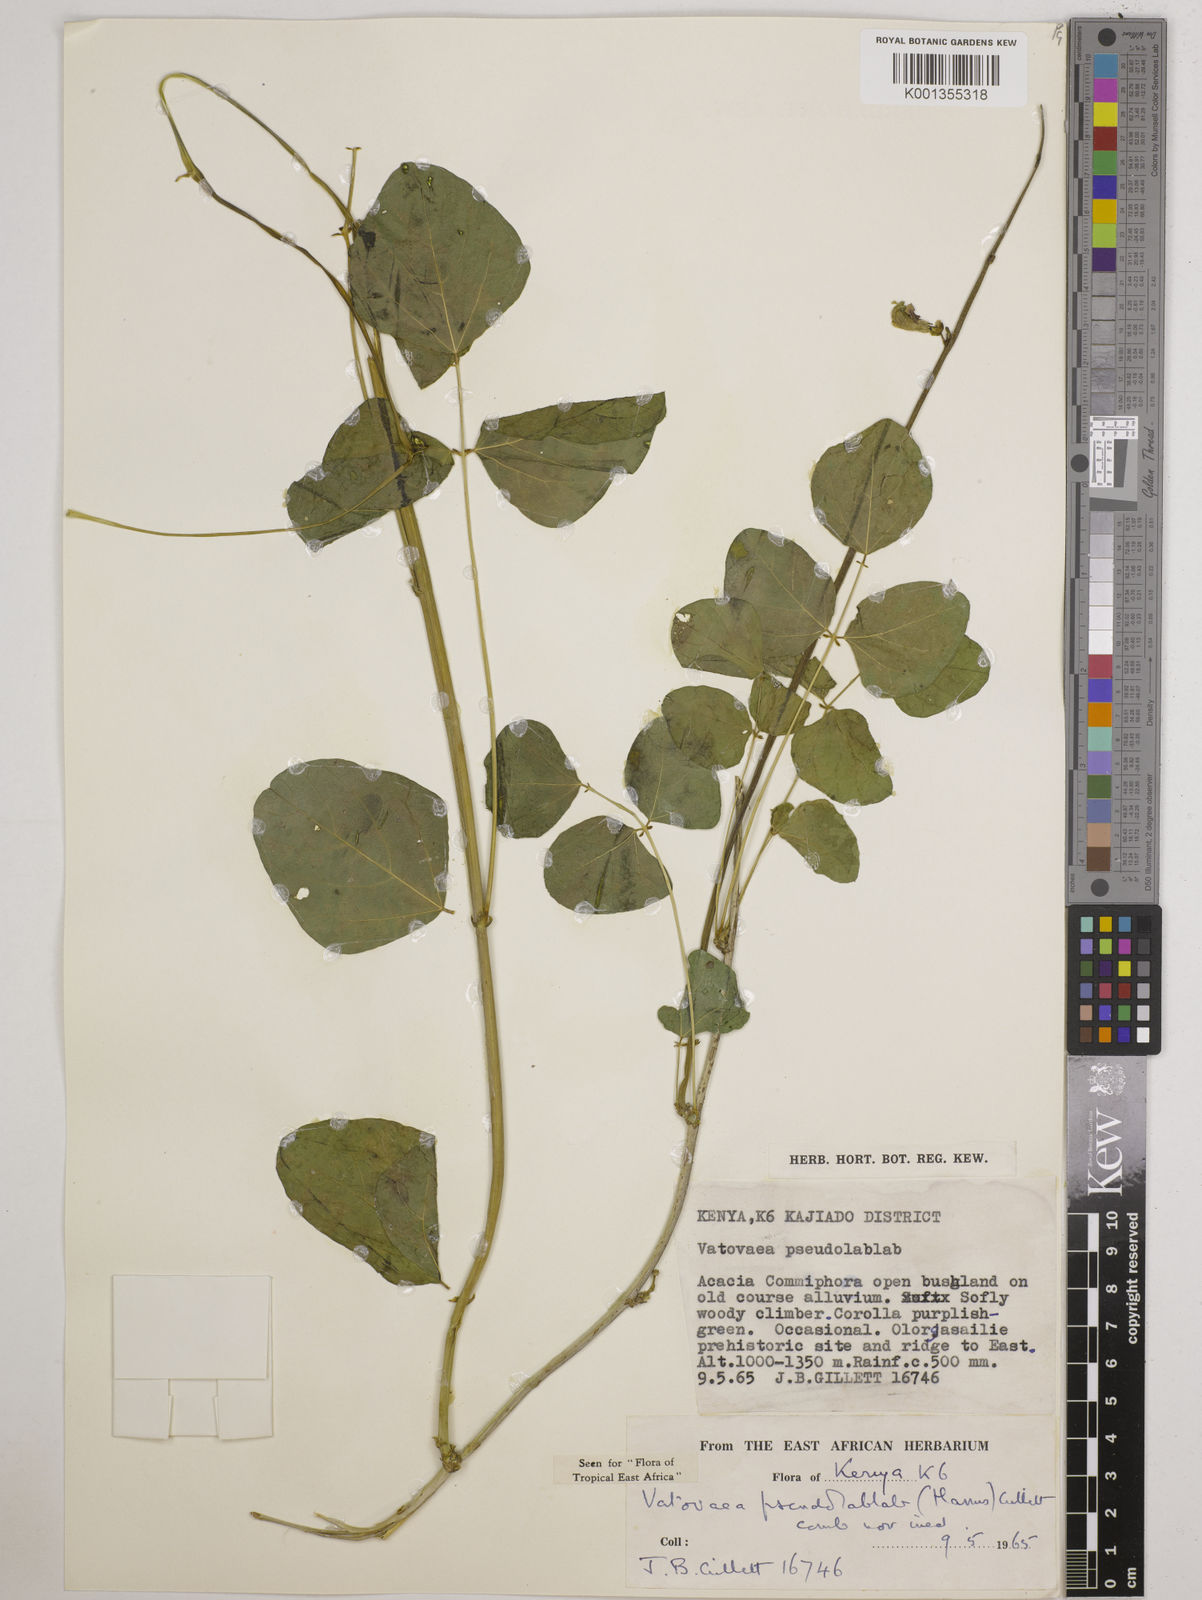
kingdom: Plantae
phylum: Tracheophyta
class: Magnoliopsida
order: Fabales
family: Fabaceae
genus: Vatovaea
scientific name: Vatovaea pseudolablab
